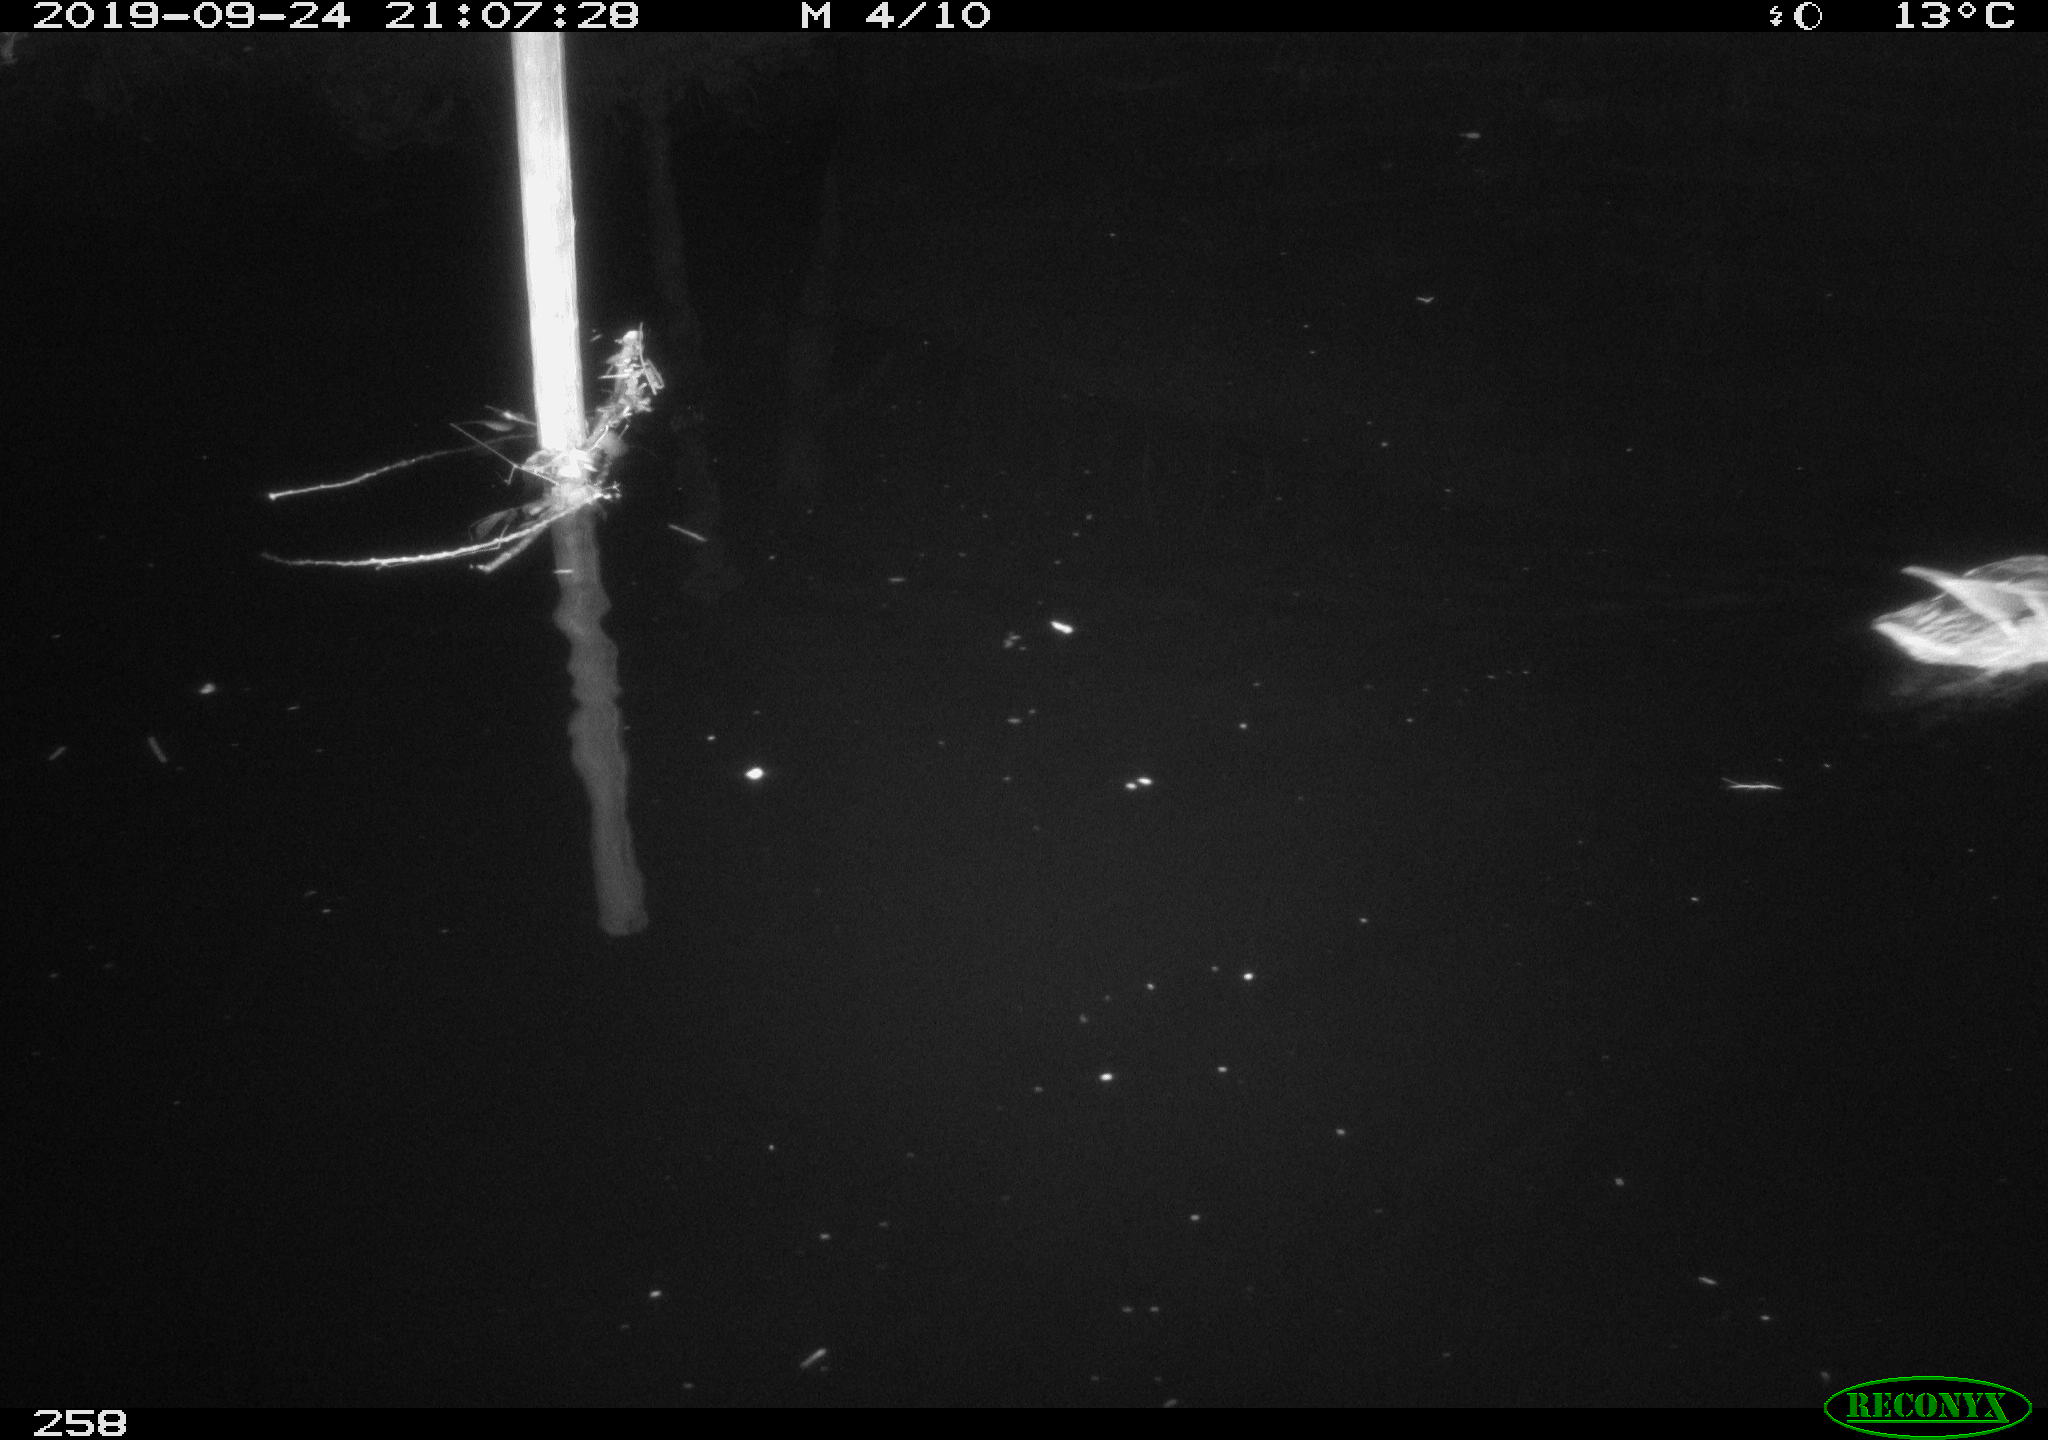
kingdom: Animalia
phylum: Chordata
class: Aves
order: Anseriformes
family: Anatidae
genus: Anas
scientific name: Anas platyrhynchos
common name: Mallard
